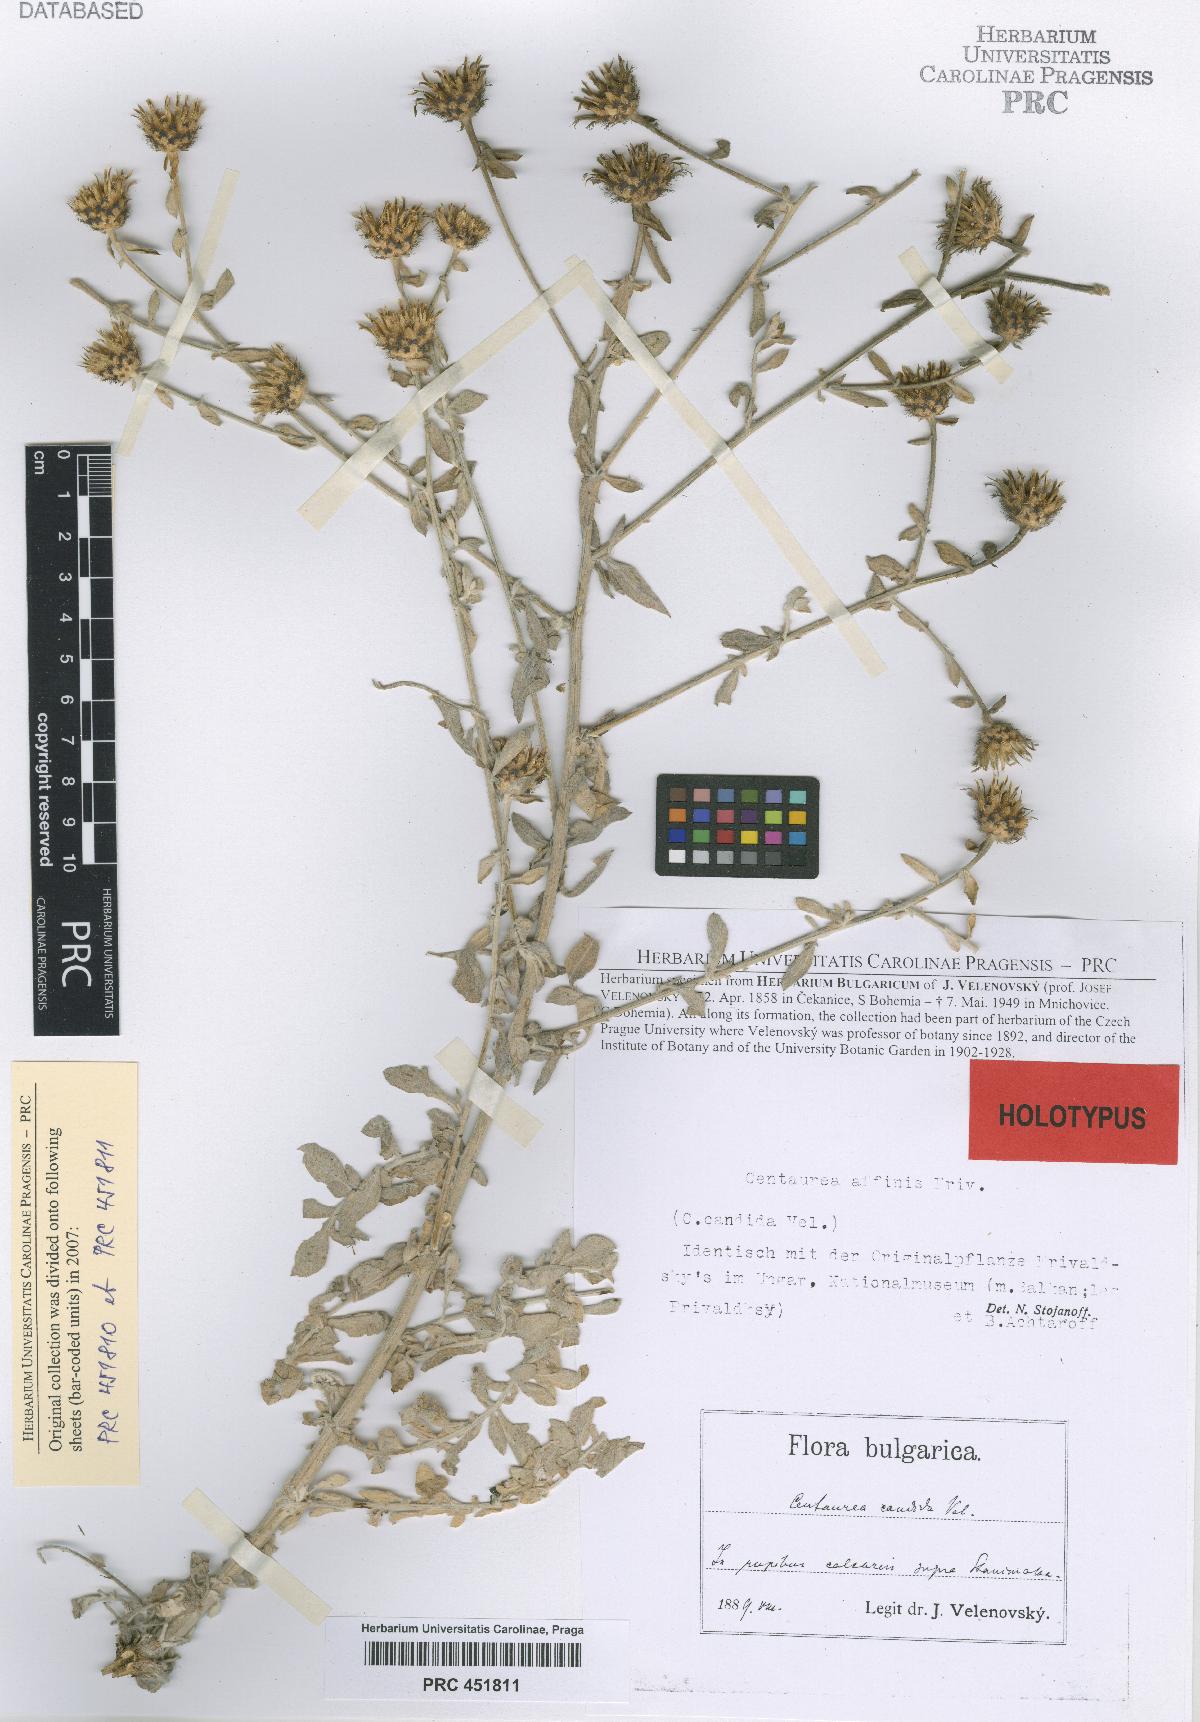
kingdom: Plantae
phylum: Tracheophyta
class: Magnoliopsida
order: Asterales
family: Asteraceae
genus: Centaurea
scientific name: Centaurea affinis
